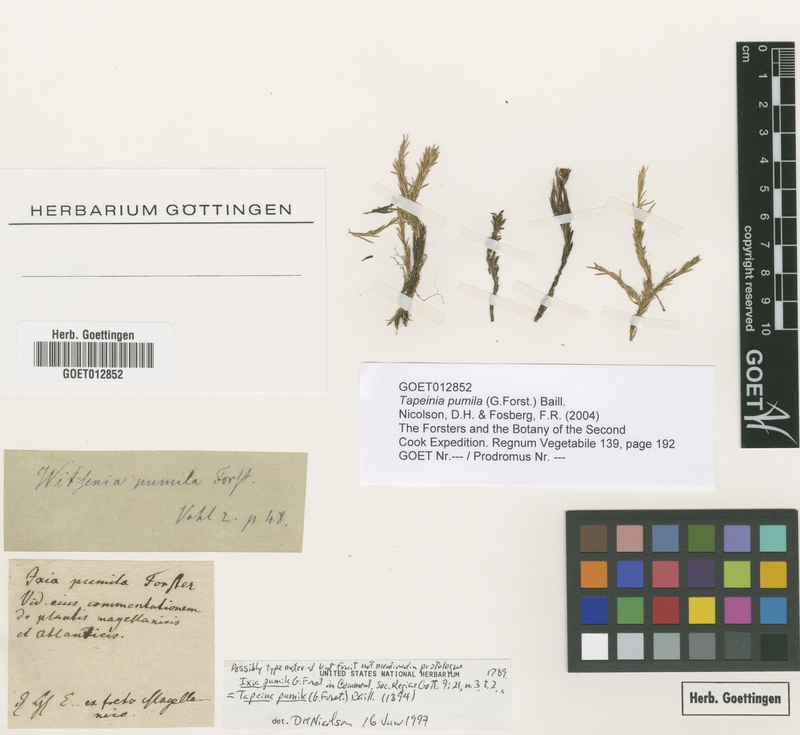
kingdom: Plantae
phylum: Tracheophyta
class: Liliopsida
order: Asparagales
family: Iridaceae
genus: Tapeinia
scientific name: Tapeinia pumila
